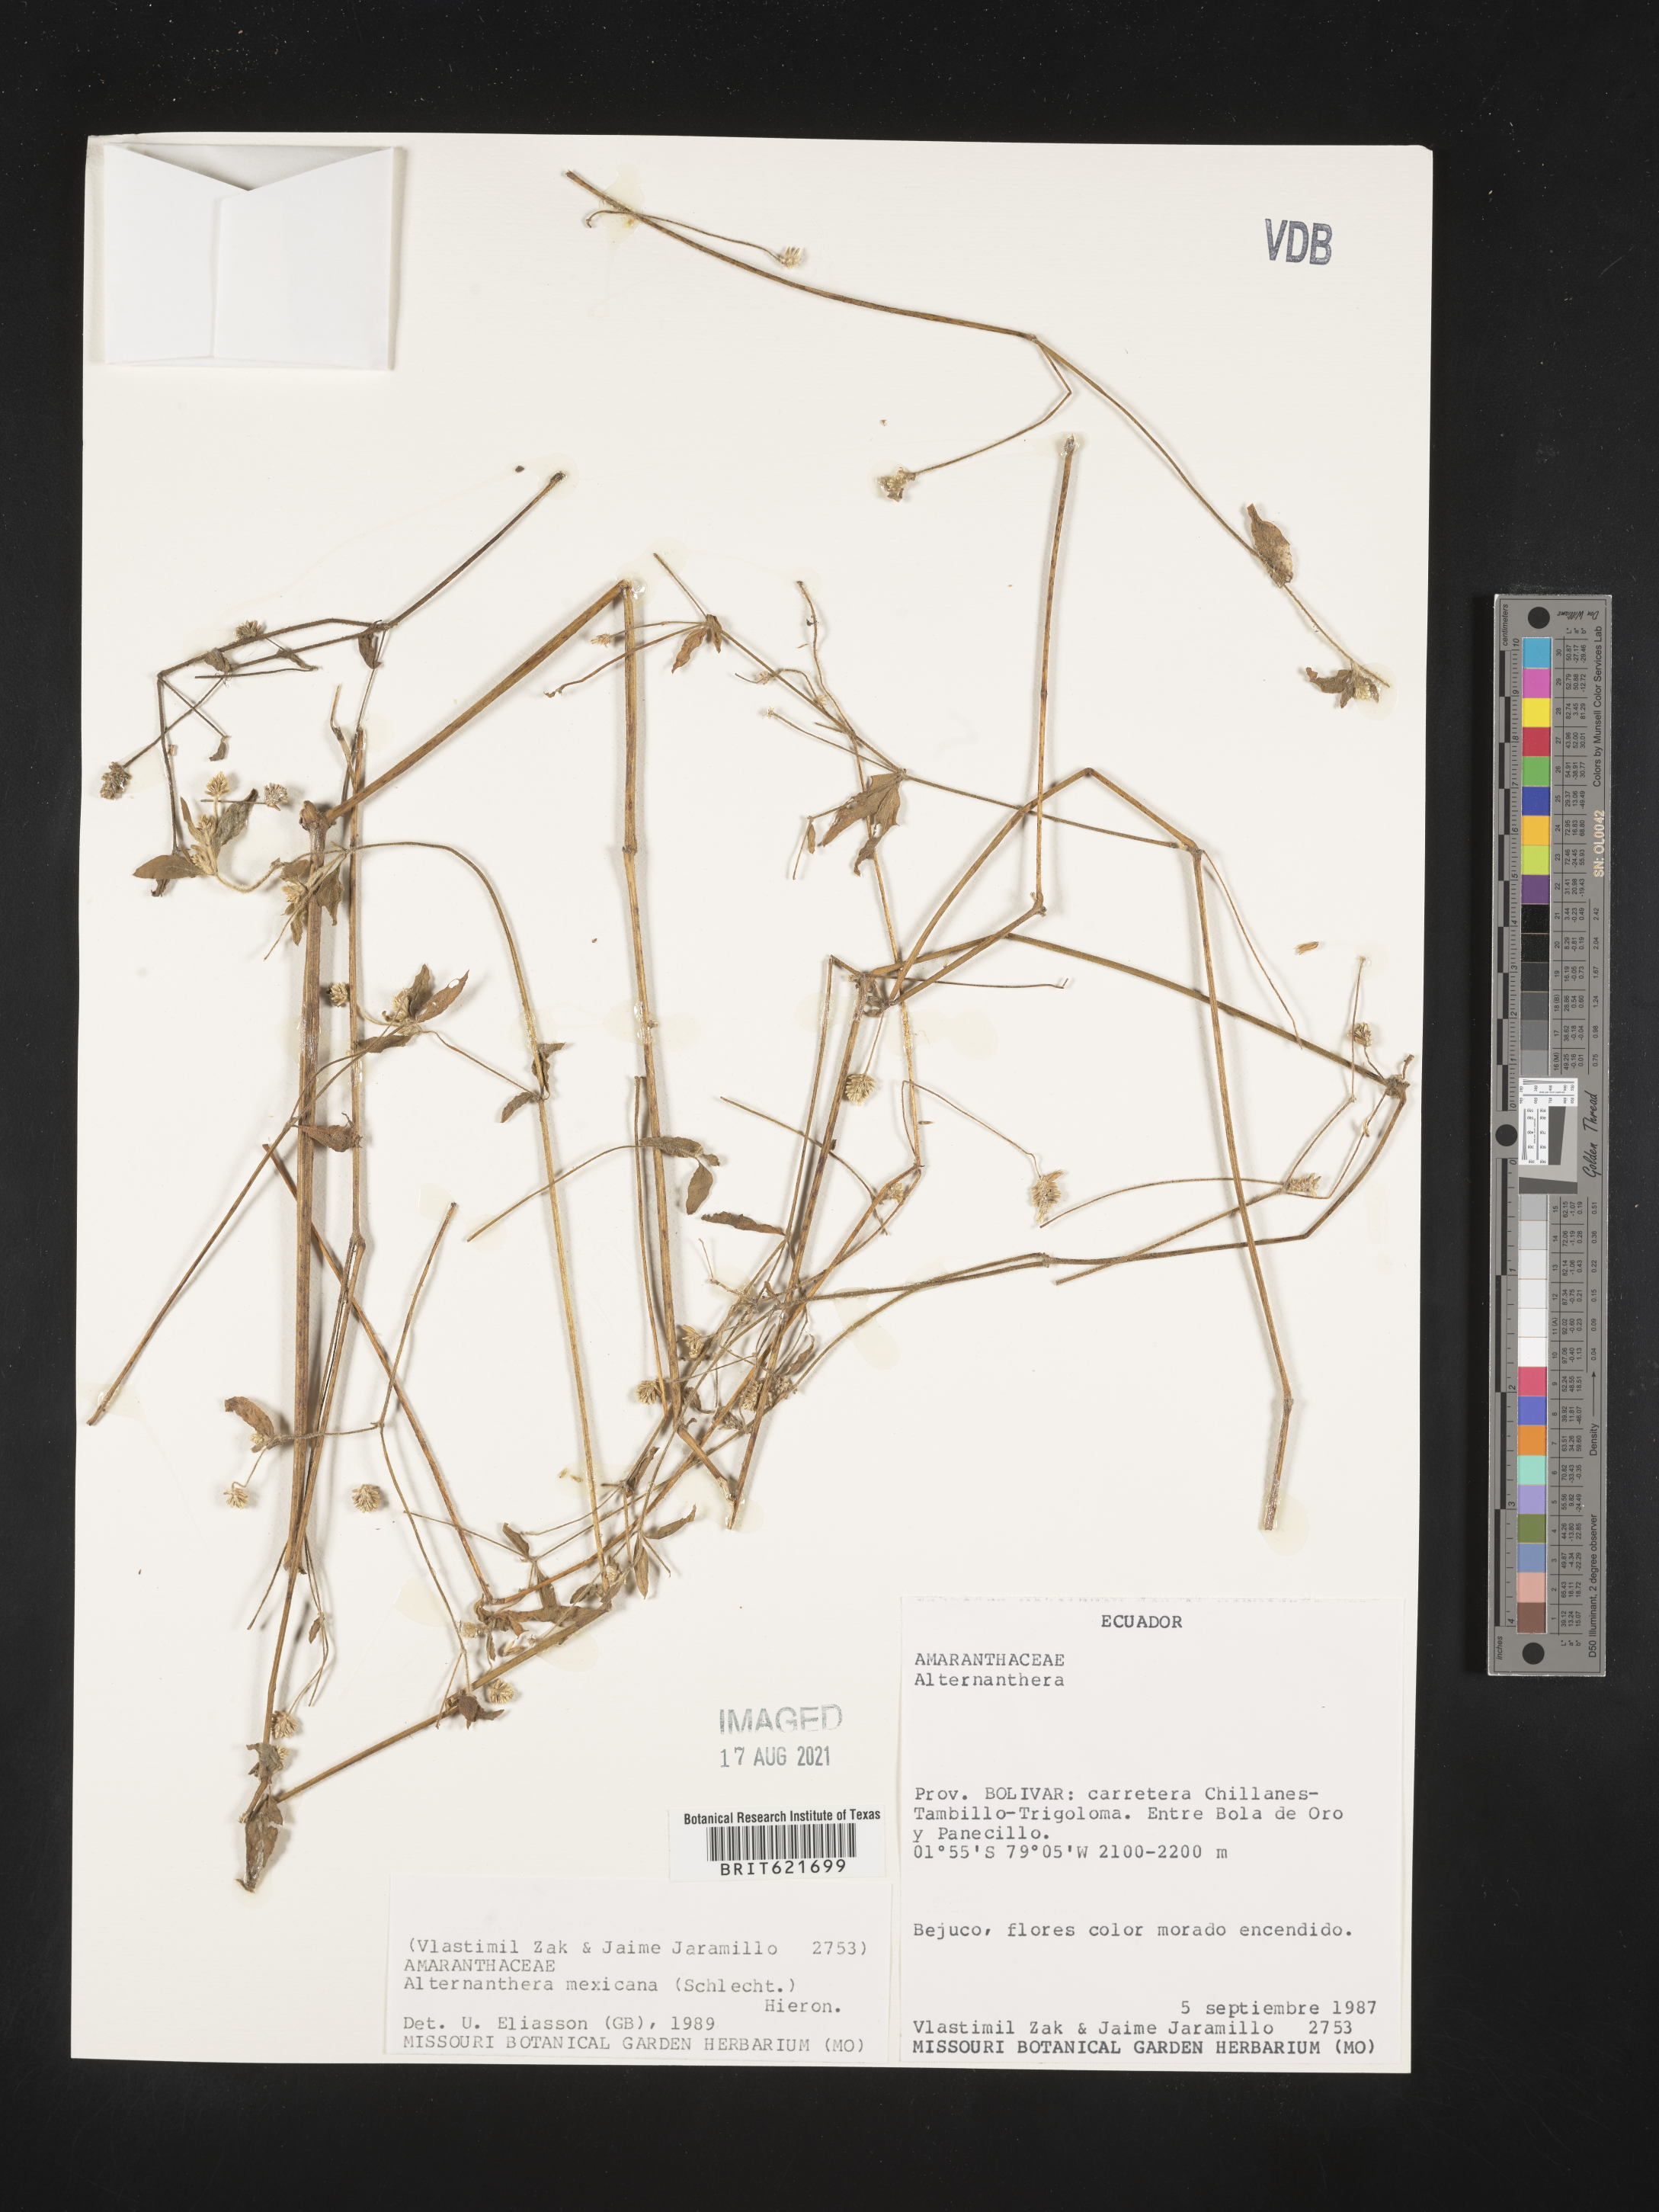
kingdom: Plantae
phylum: Tracheophyta
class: Magnoliopsida
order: Caryophyllales
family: Amaranthaceae
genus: Alternanthera
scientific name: Alternanthera lanceolata
